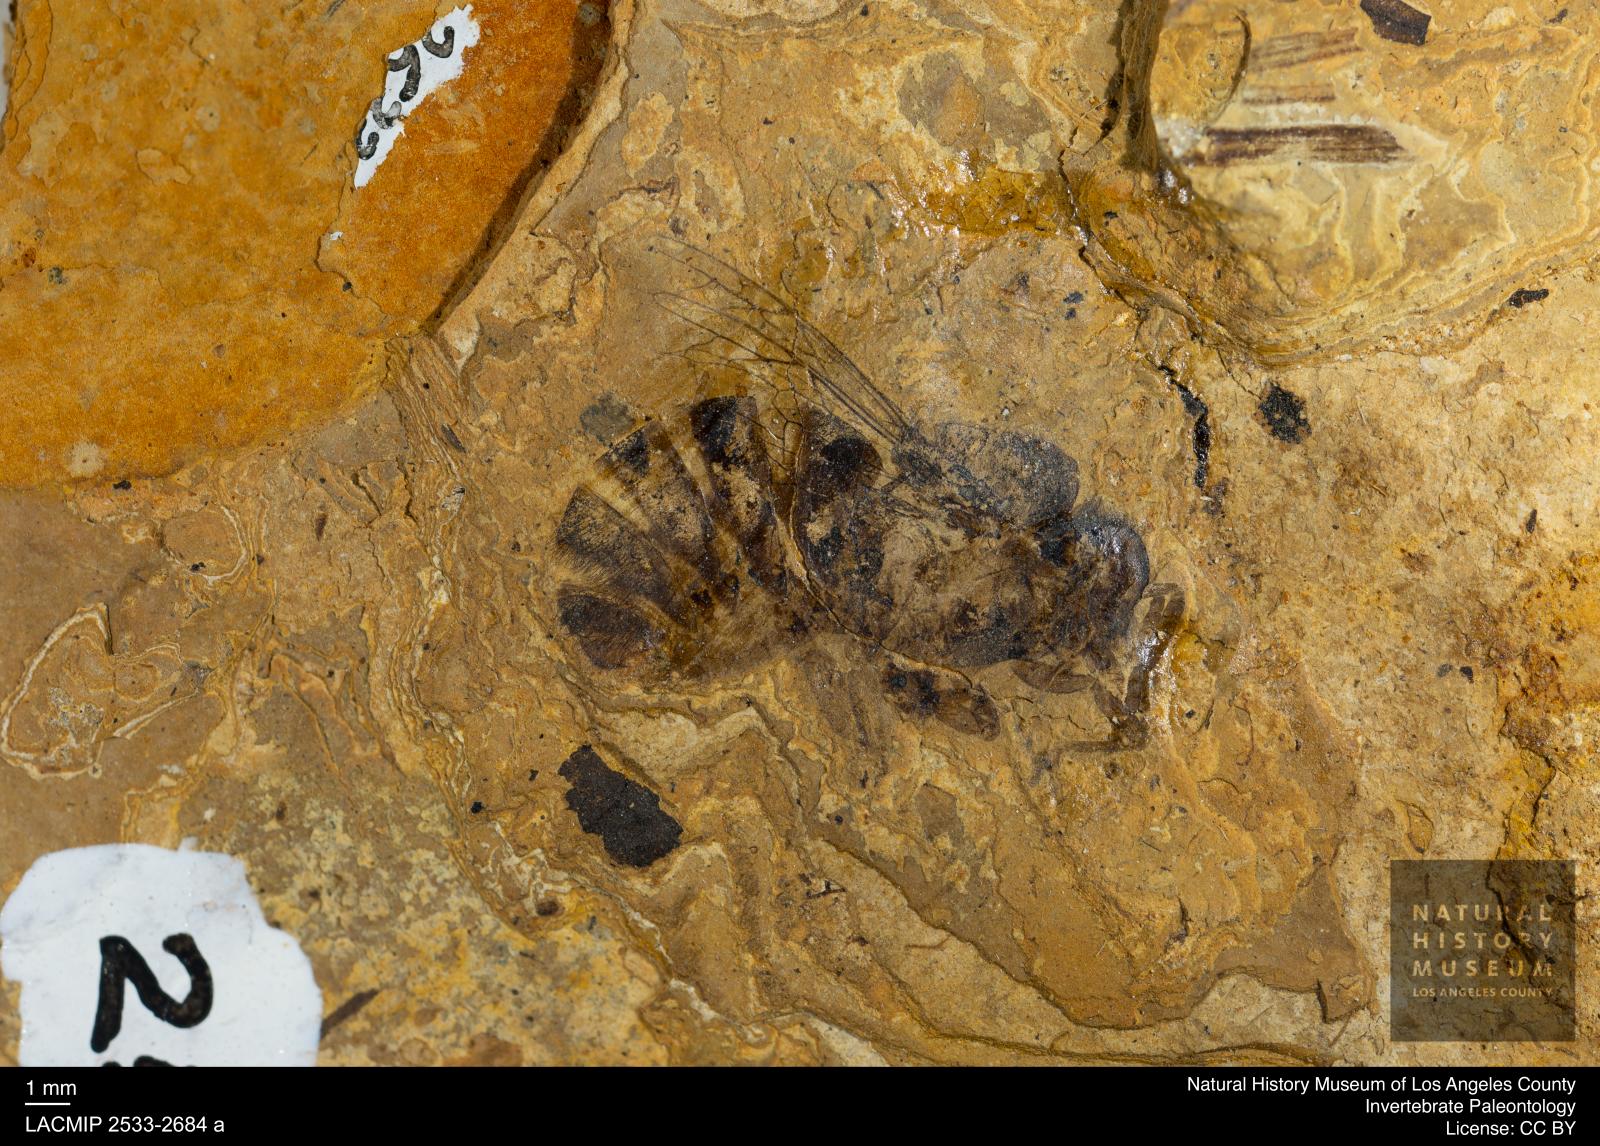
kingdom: Animalia
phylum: Arthropoda
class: Insecta
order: Hymenoptera
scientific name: Hymenoptera
